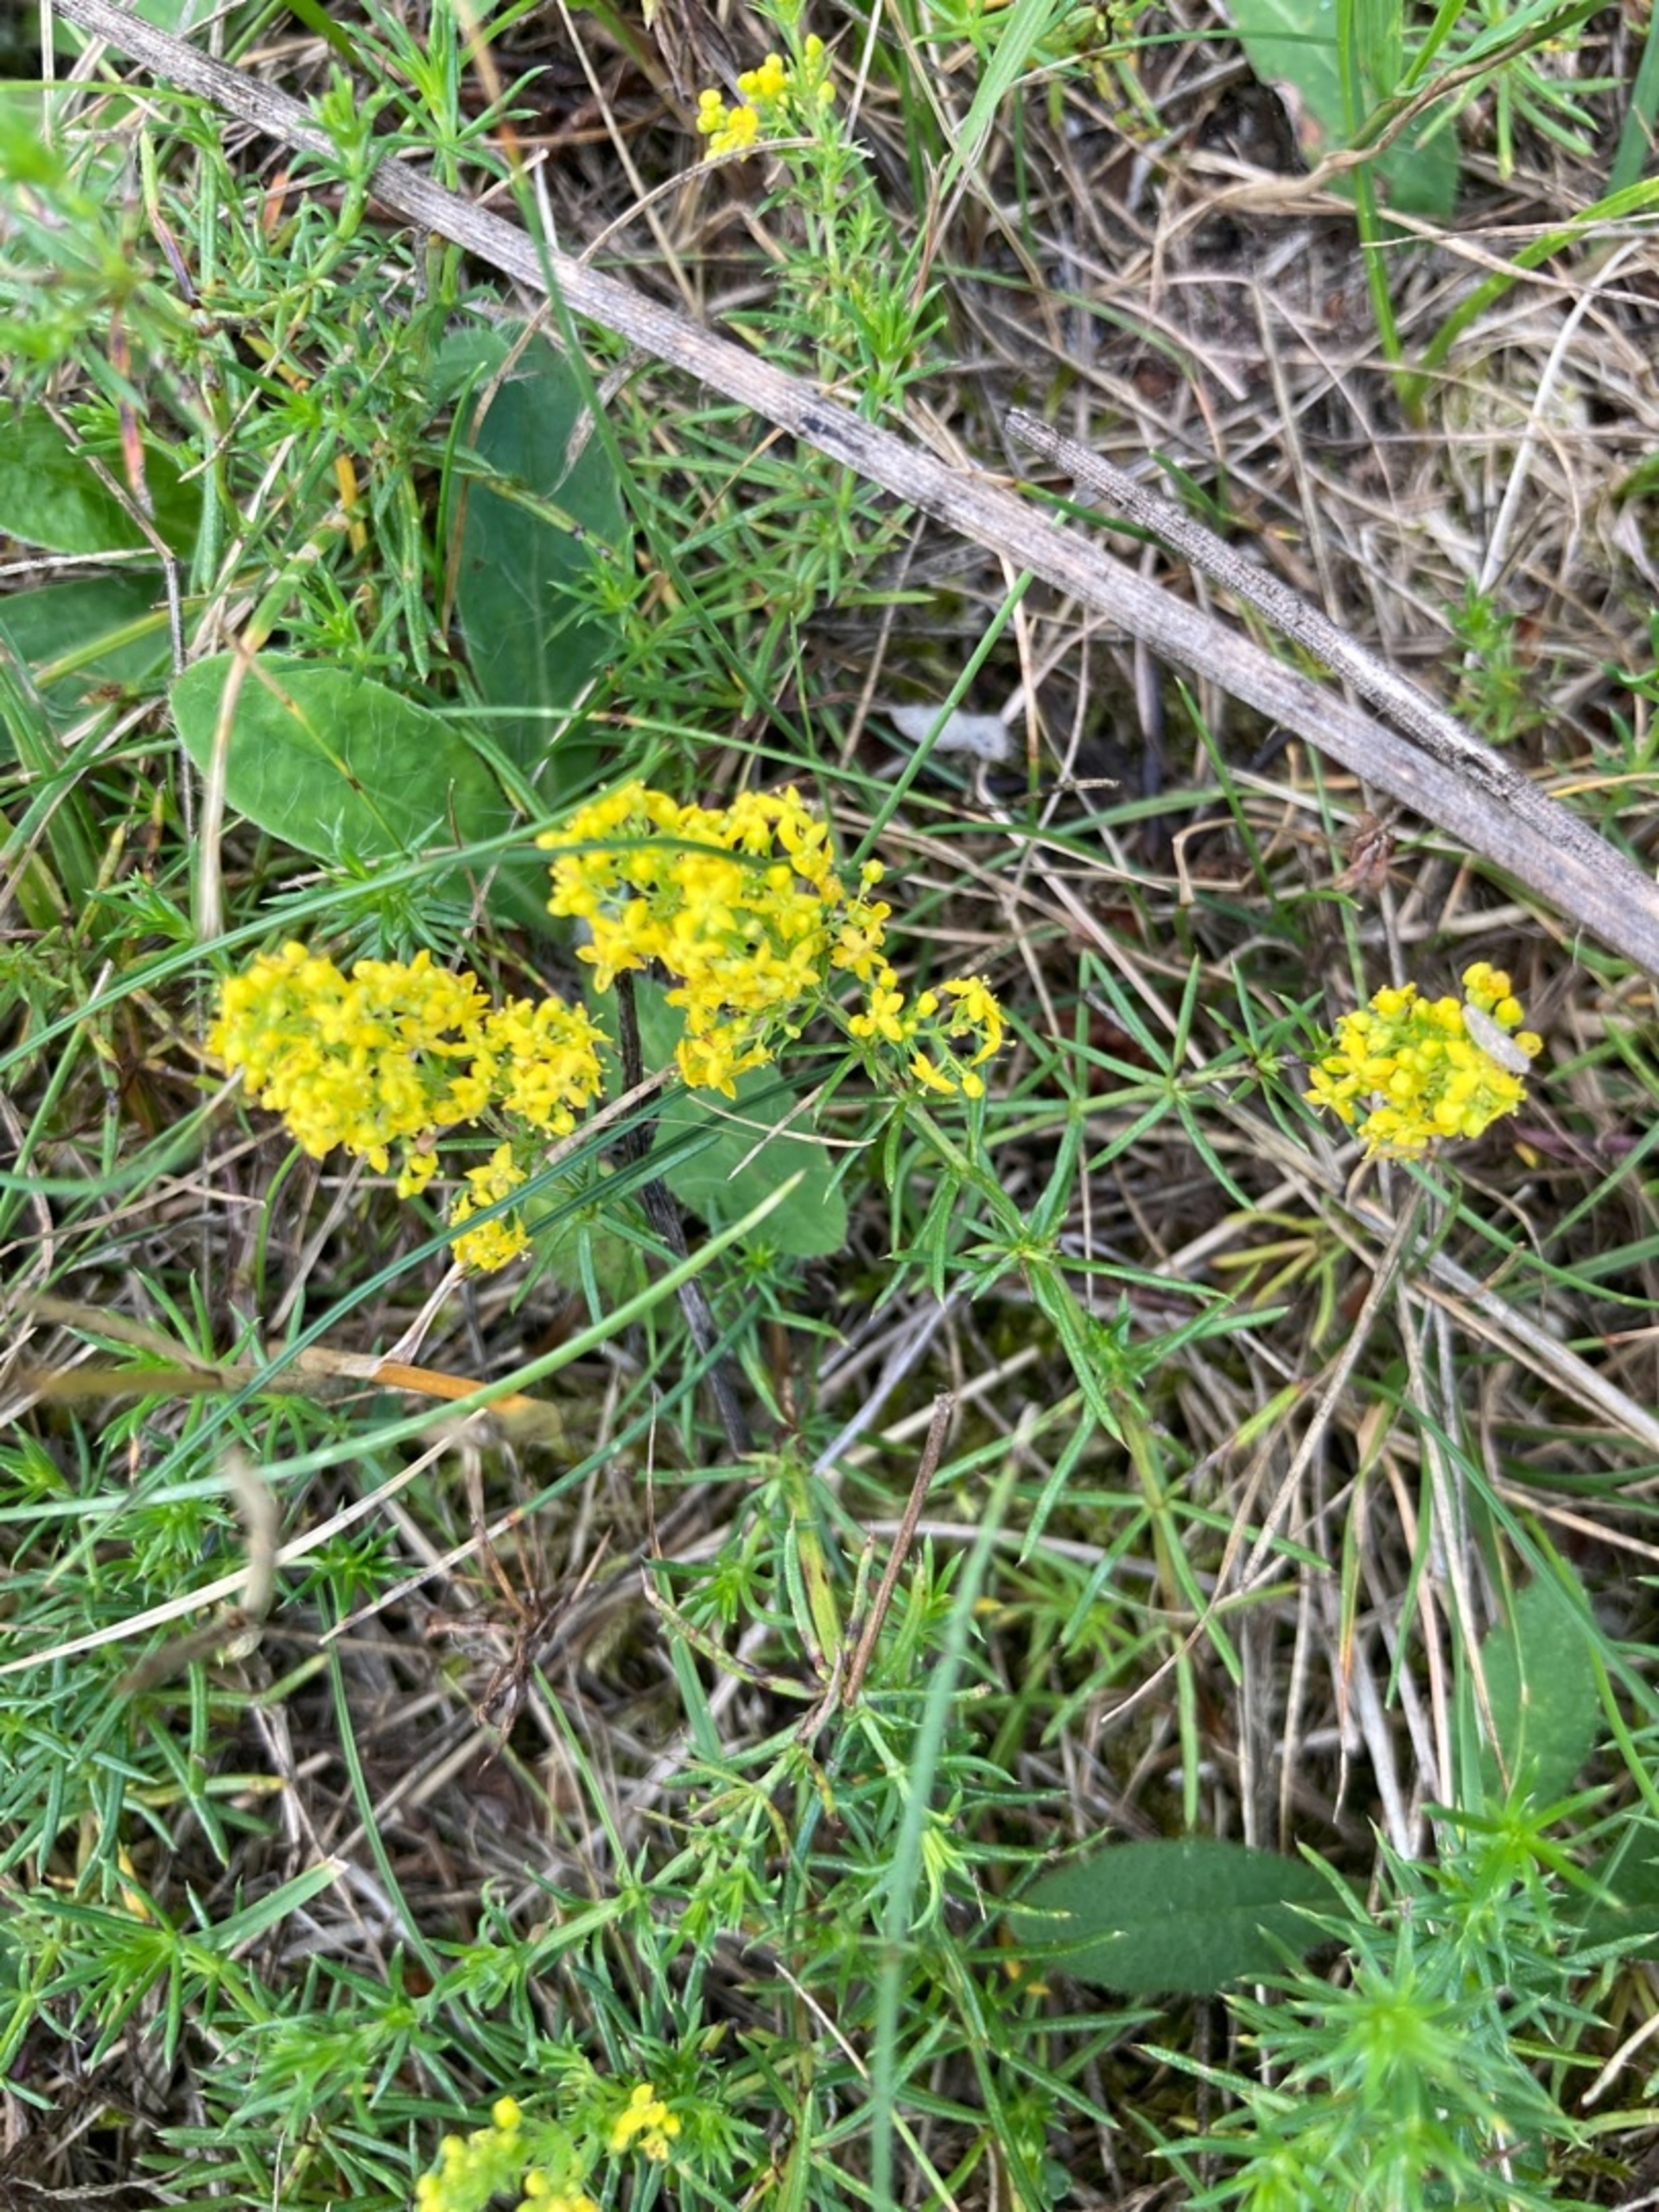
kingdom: Plantae
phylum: Tracheophyta
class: Magnoliopsida
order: Gentianales
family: Rubiaceae
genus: Galium
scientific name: Galium verum
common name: Gul snerre
